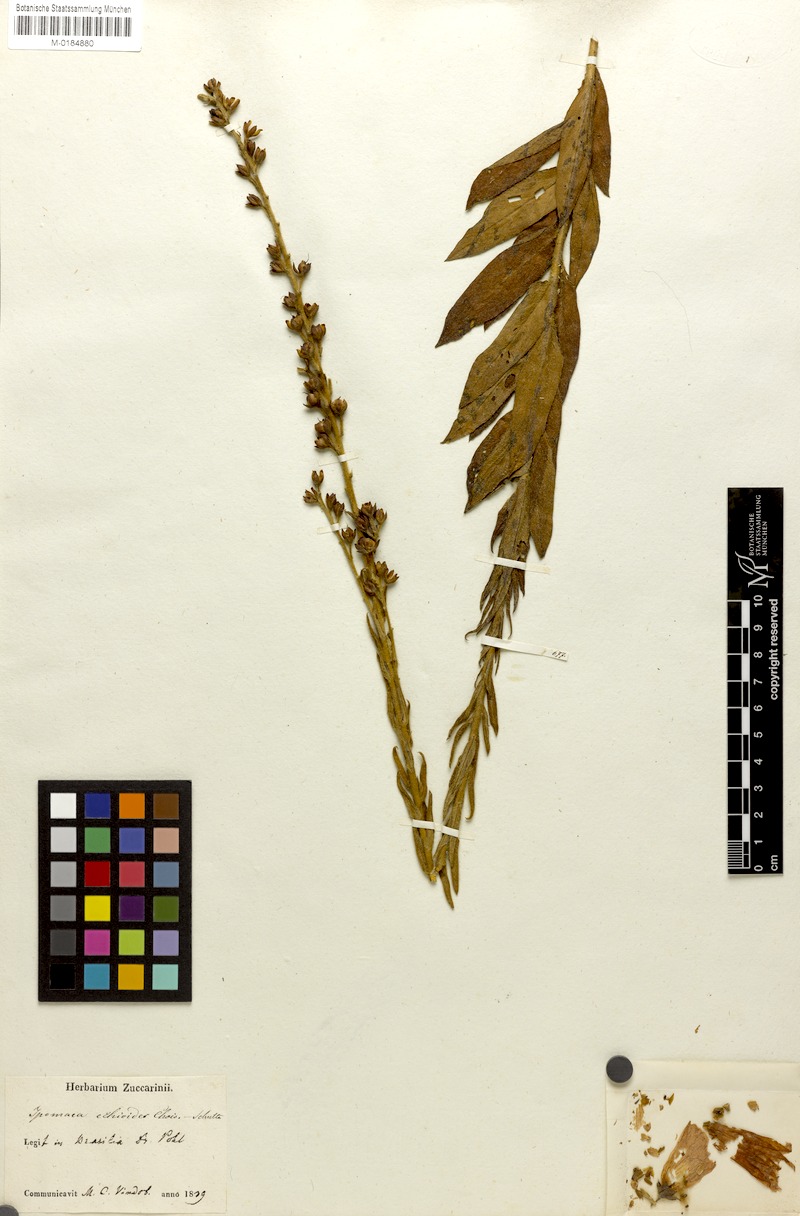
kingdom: Plantae
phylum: Tracheophyta
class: Magnoliopsida
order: Solanales
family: Convolvulaceae
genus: Ipomoea
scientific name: Ipomoea paulistana
